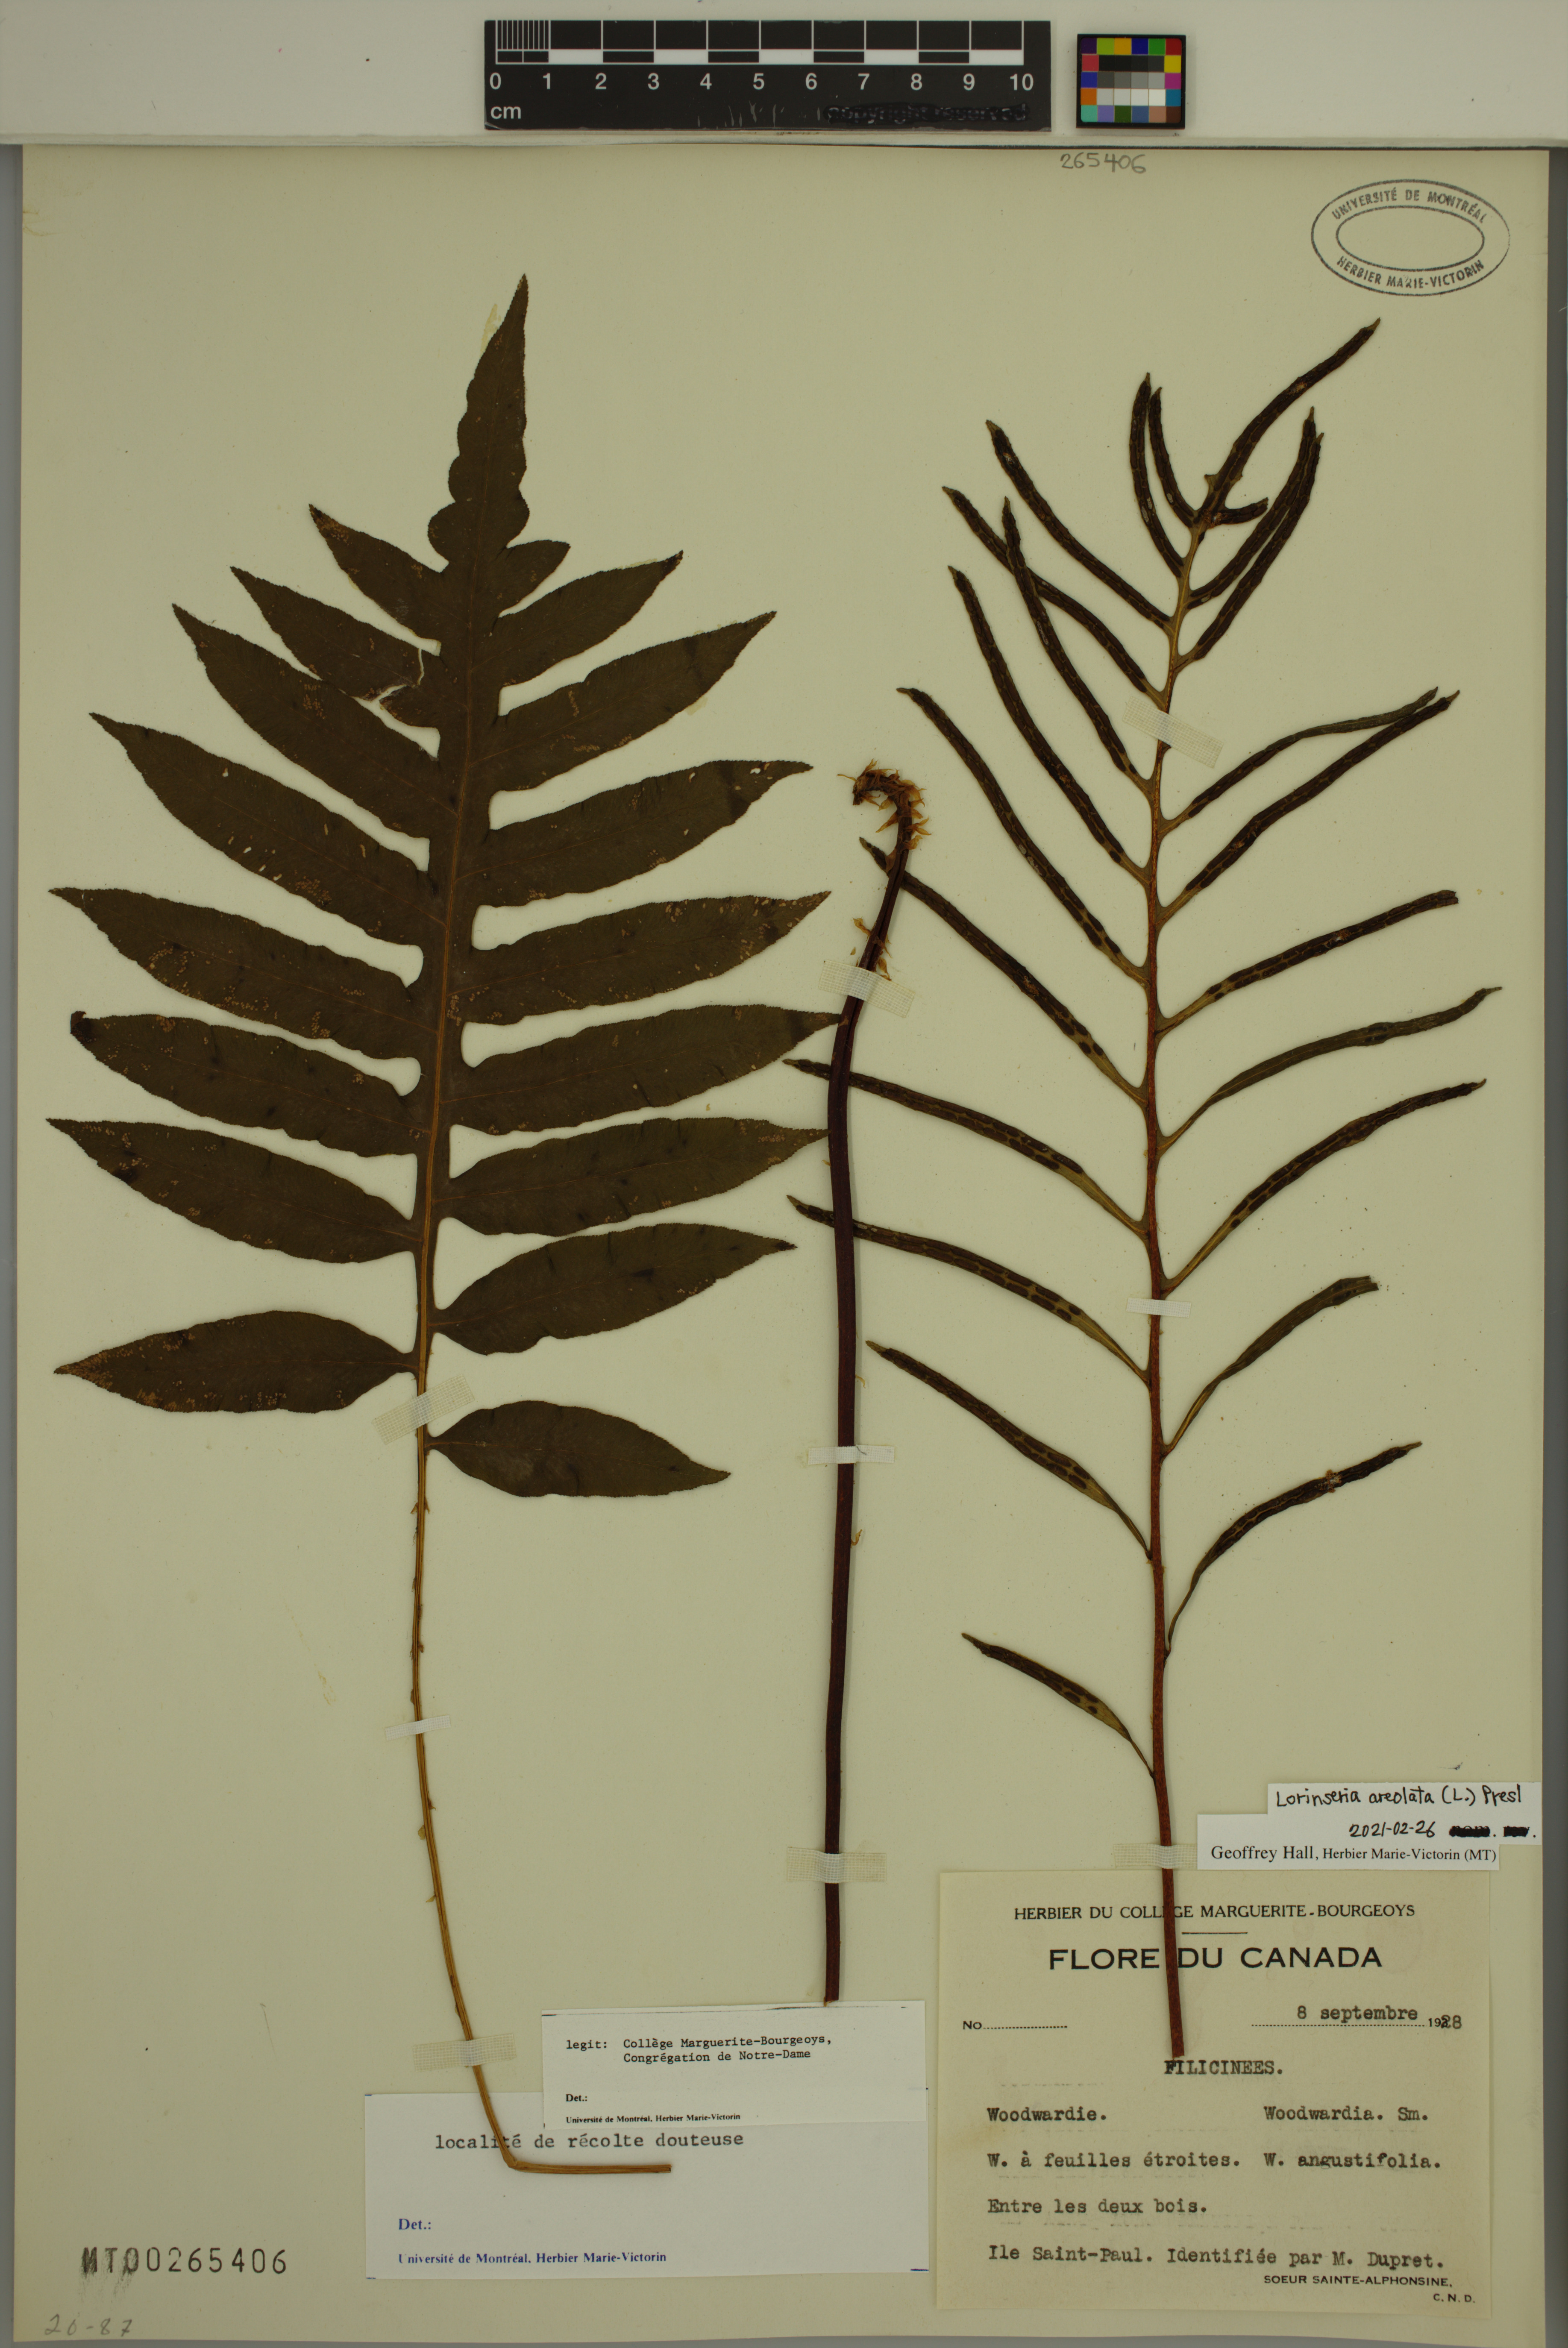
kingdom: Plantae
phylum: Tracheophyta
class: Polypodiopsida
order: Polypodiales
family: Blechnaceae
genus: Lorinseria
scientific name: Lorinseria areolata
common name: Dwarf chain fern
